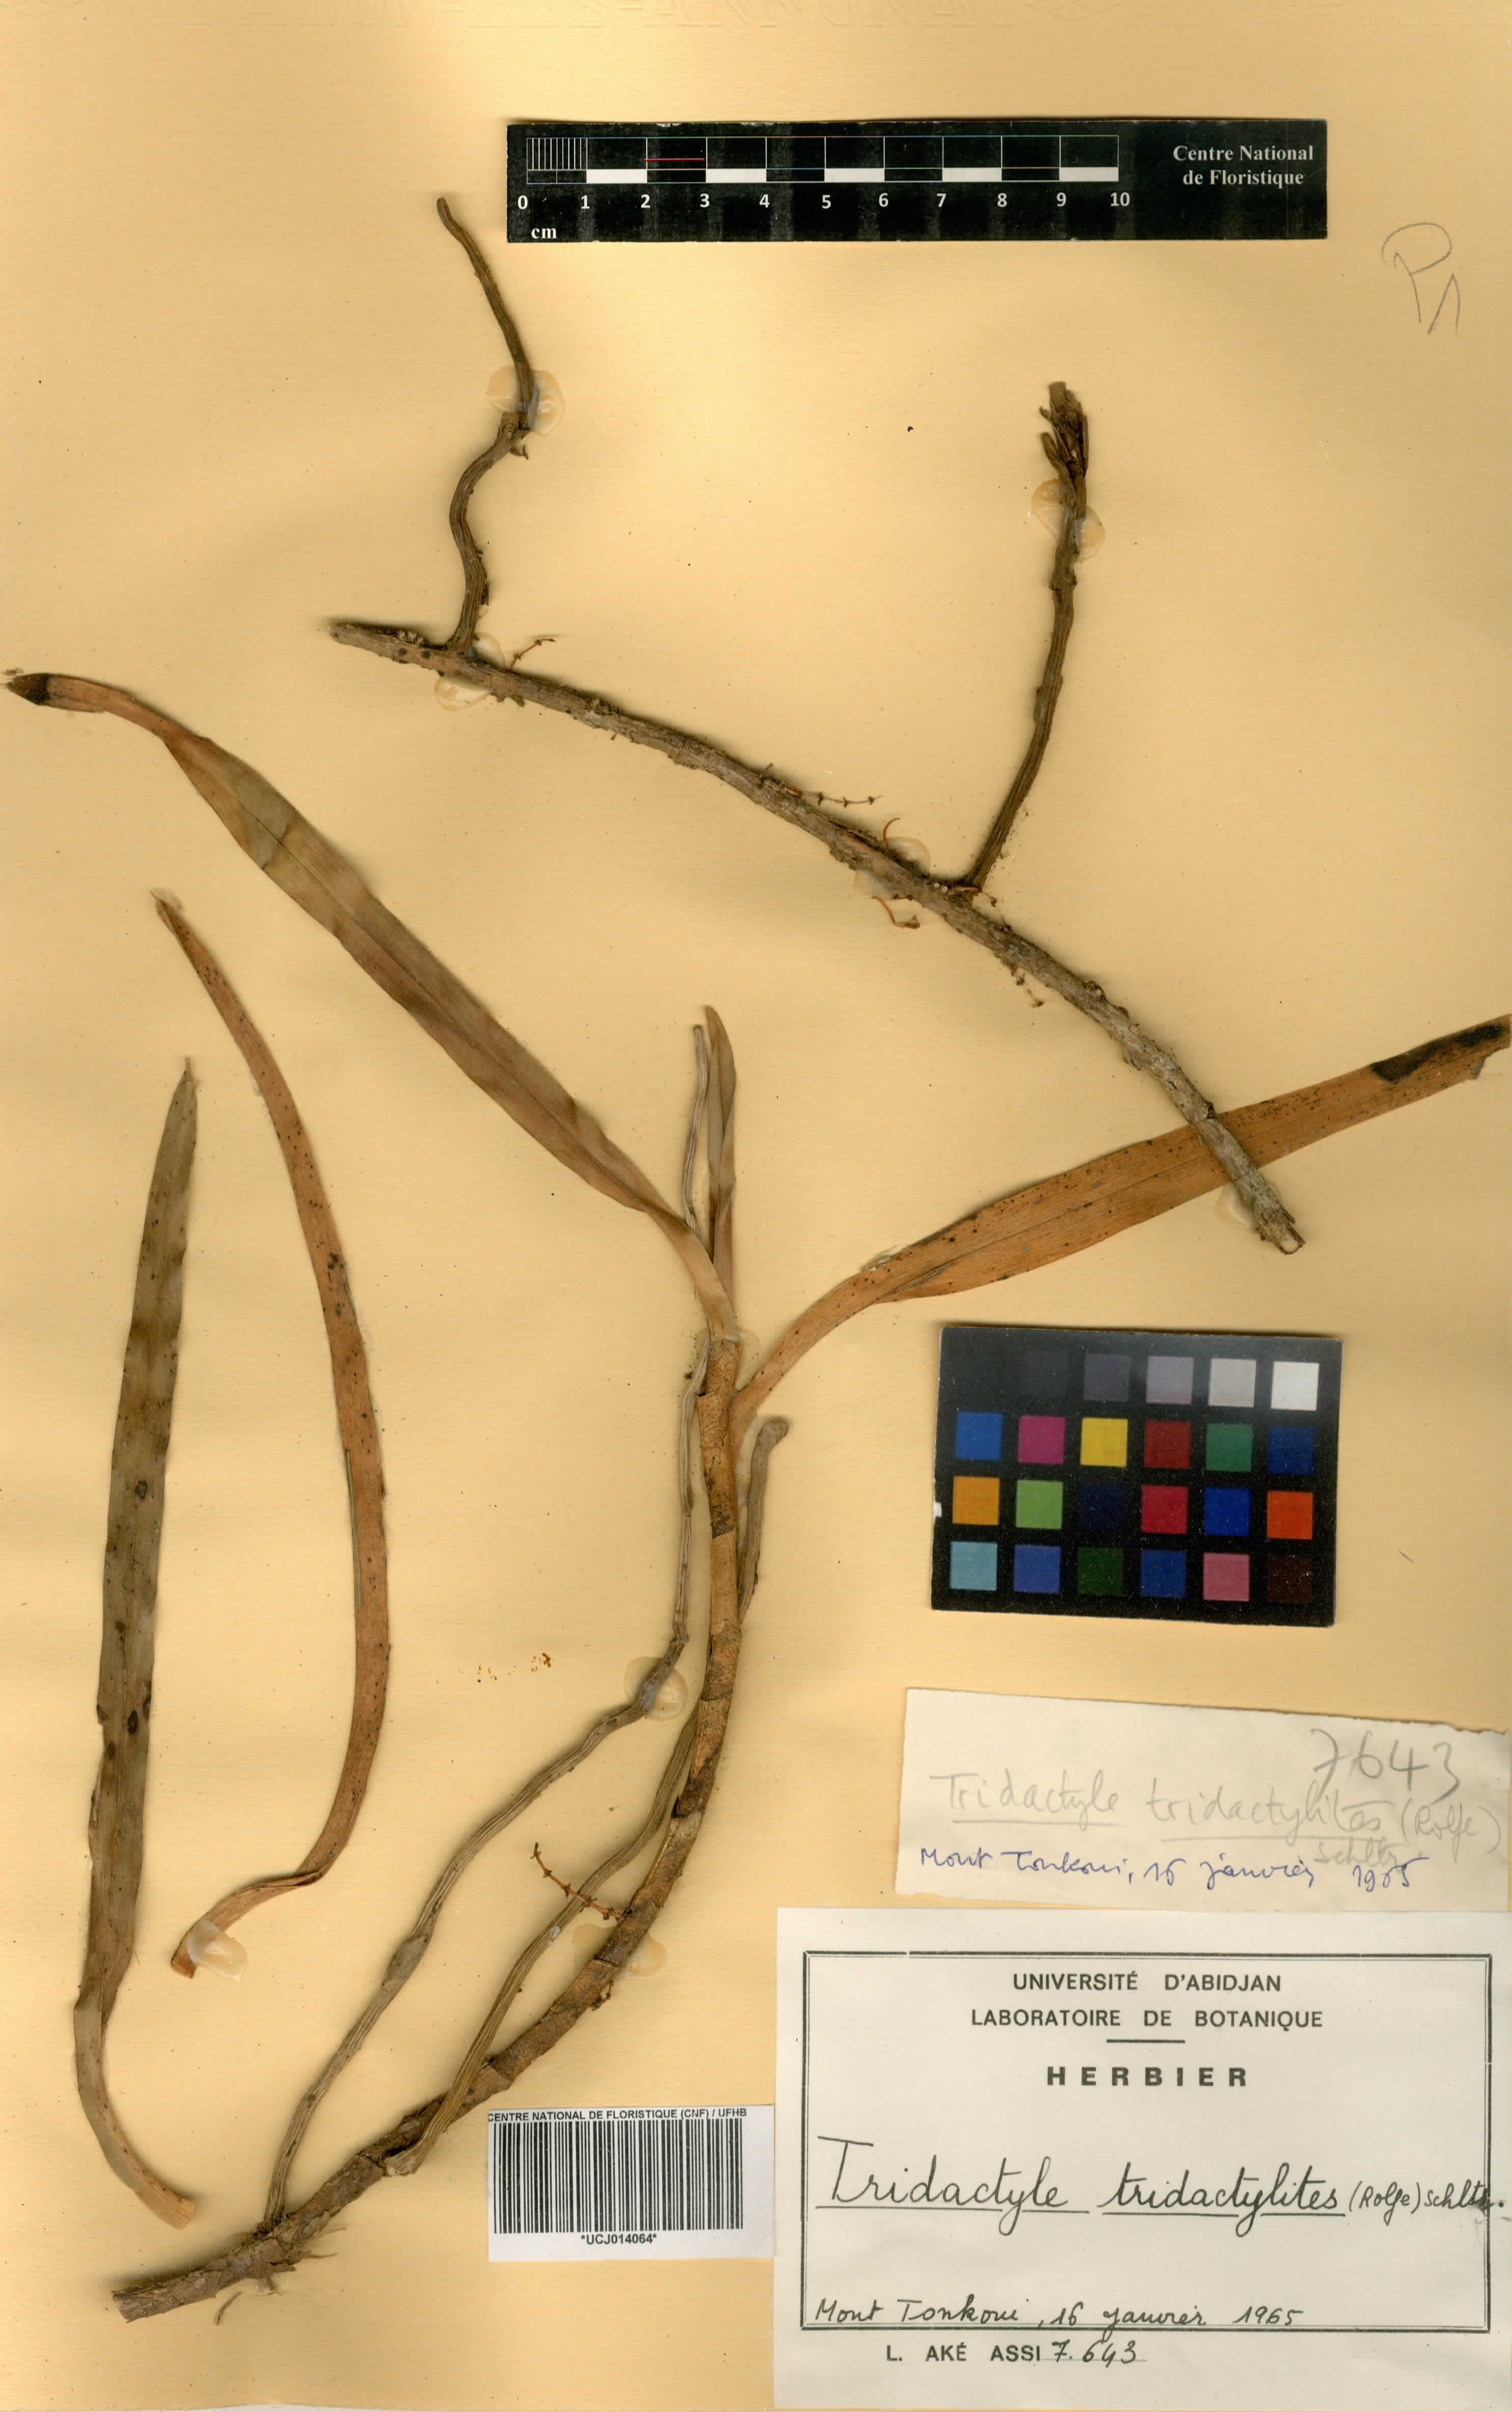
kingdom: Plantae
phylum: Tracheophyta
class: Liliopsida
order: Asparagales
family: Orchidaceae
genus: Tridactyle
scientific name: Tridactyle tridactylites
